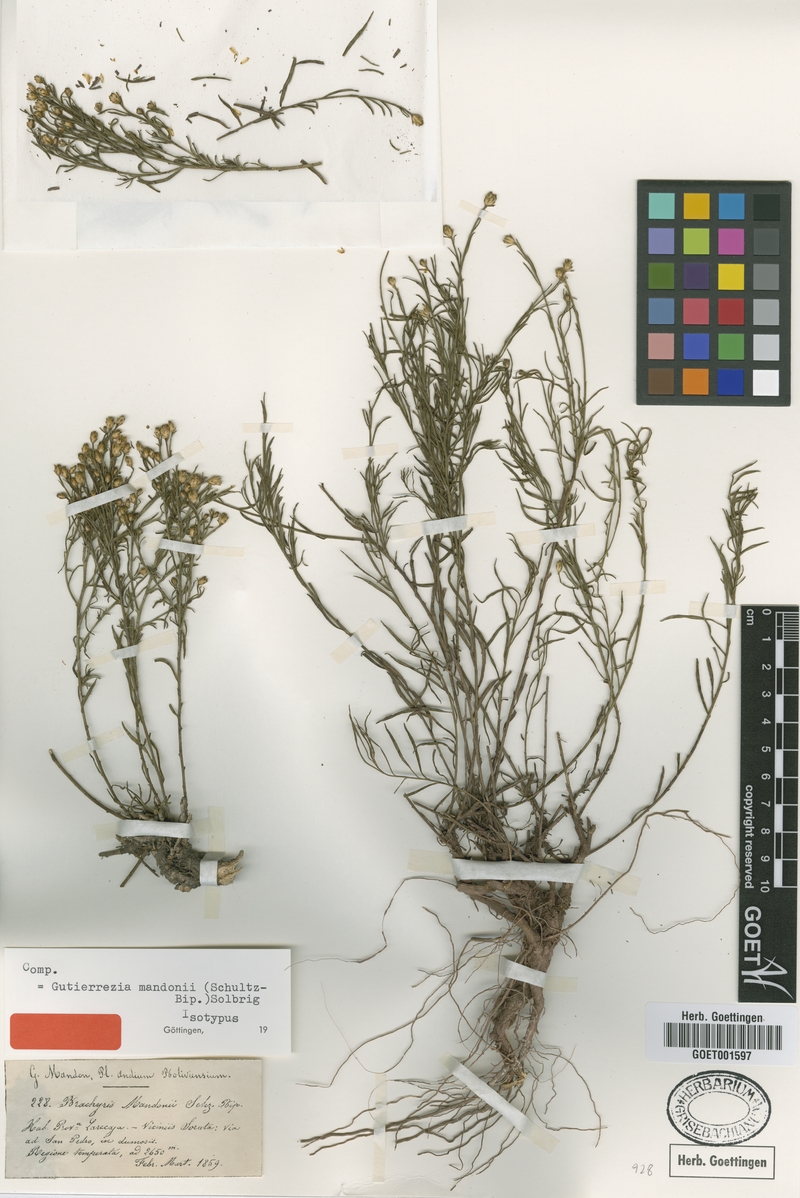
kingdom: Plantae
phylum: Tracheophyta
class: Magnoliopsida
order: Asterales
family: Asteraceae
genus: Gutierrezia
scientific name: Gutierrezia mandonii
